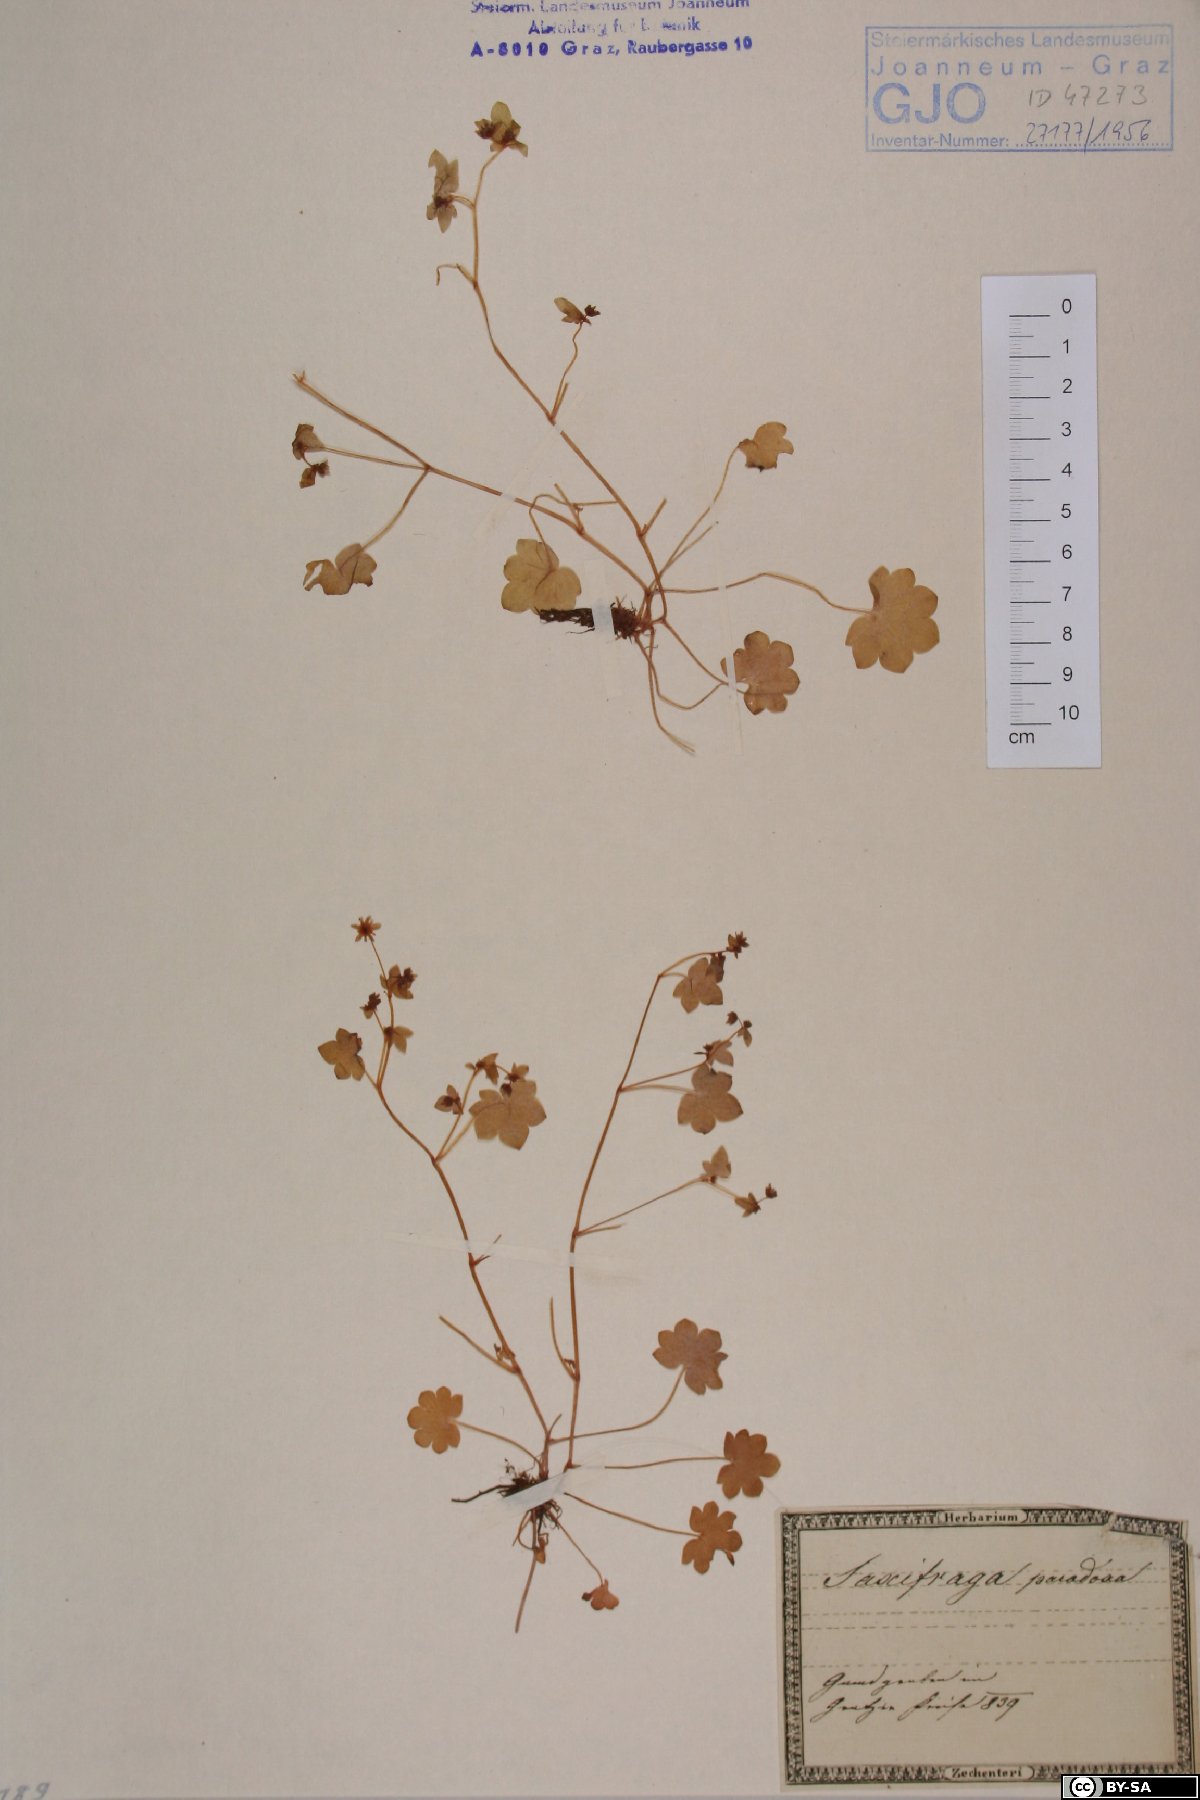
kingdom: Plantae
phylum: Tracheophyta
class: Magnoliopsida
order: Saxifragales
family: Saxifragaceae
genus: Saxifraga
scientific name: Saxifraga paradoxa
